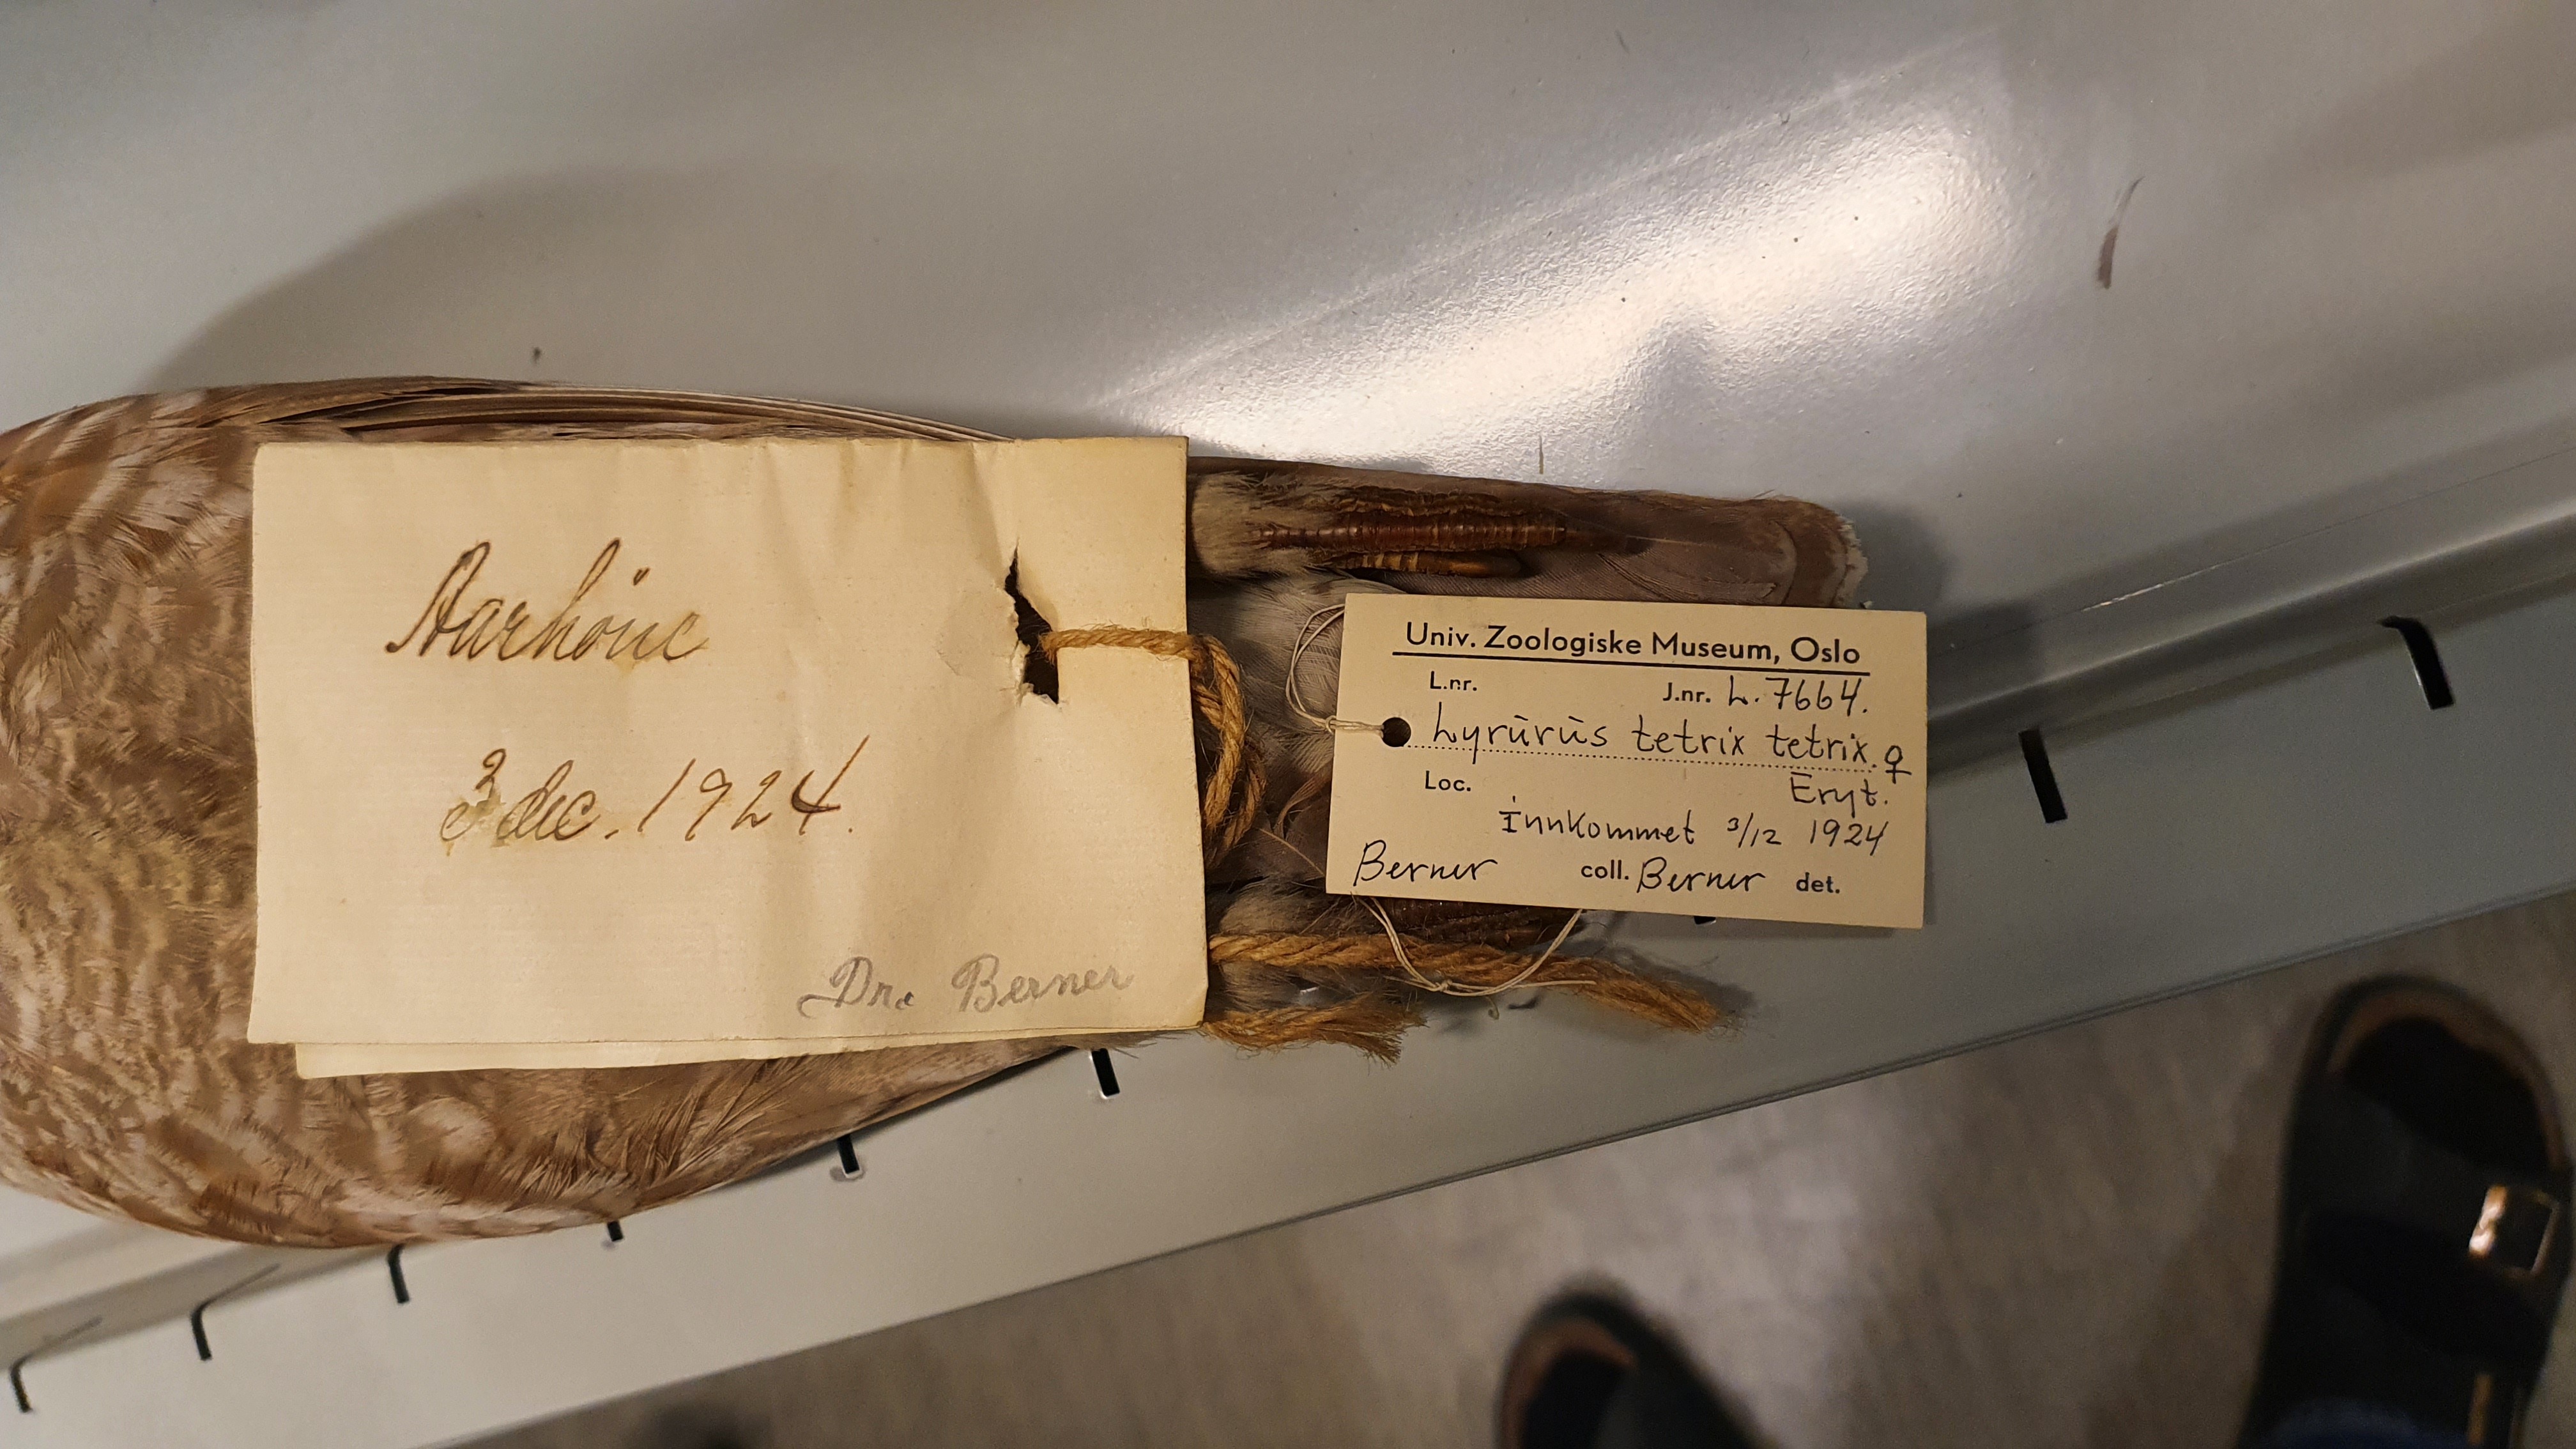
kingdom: Animalia
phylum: Chordata
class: Aves
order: Galliformes
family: Phasianidae
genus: Lyrurus
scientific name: Lyrurus tetrix
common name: Black grouse
